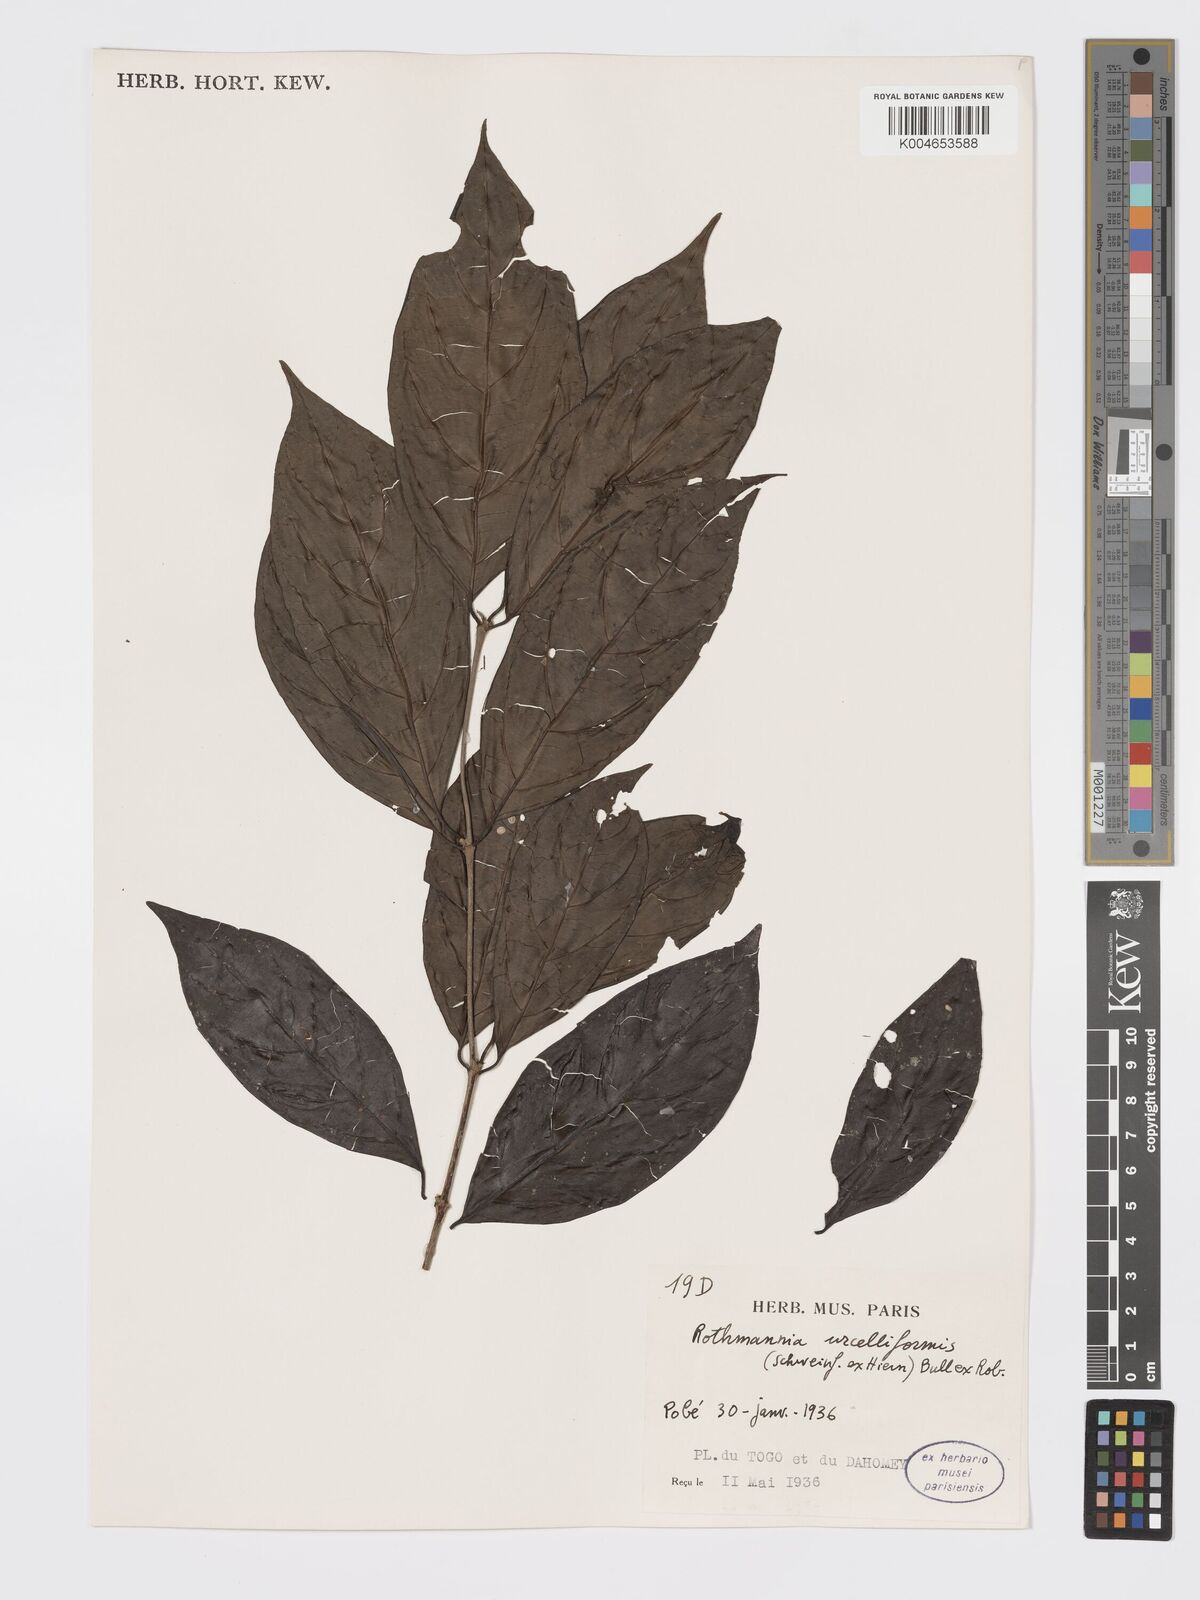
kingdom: Plantae
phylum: Tracheophyta
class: Magnoliopsida
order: Gentianales
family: Rubiaceae
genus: Rothmannia
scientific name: Rothmannia urcelliformis
